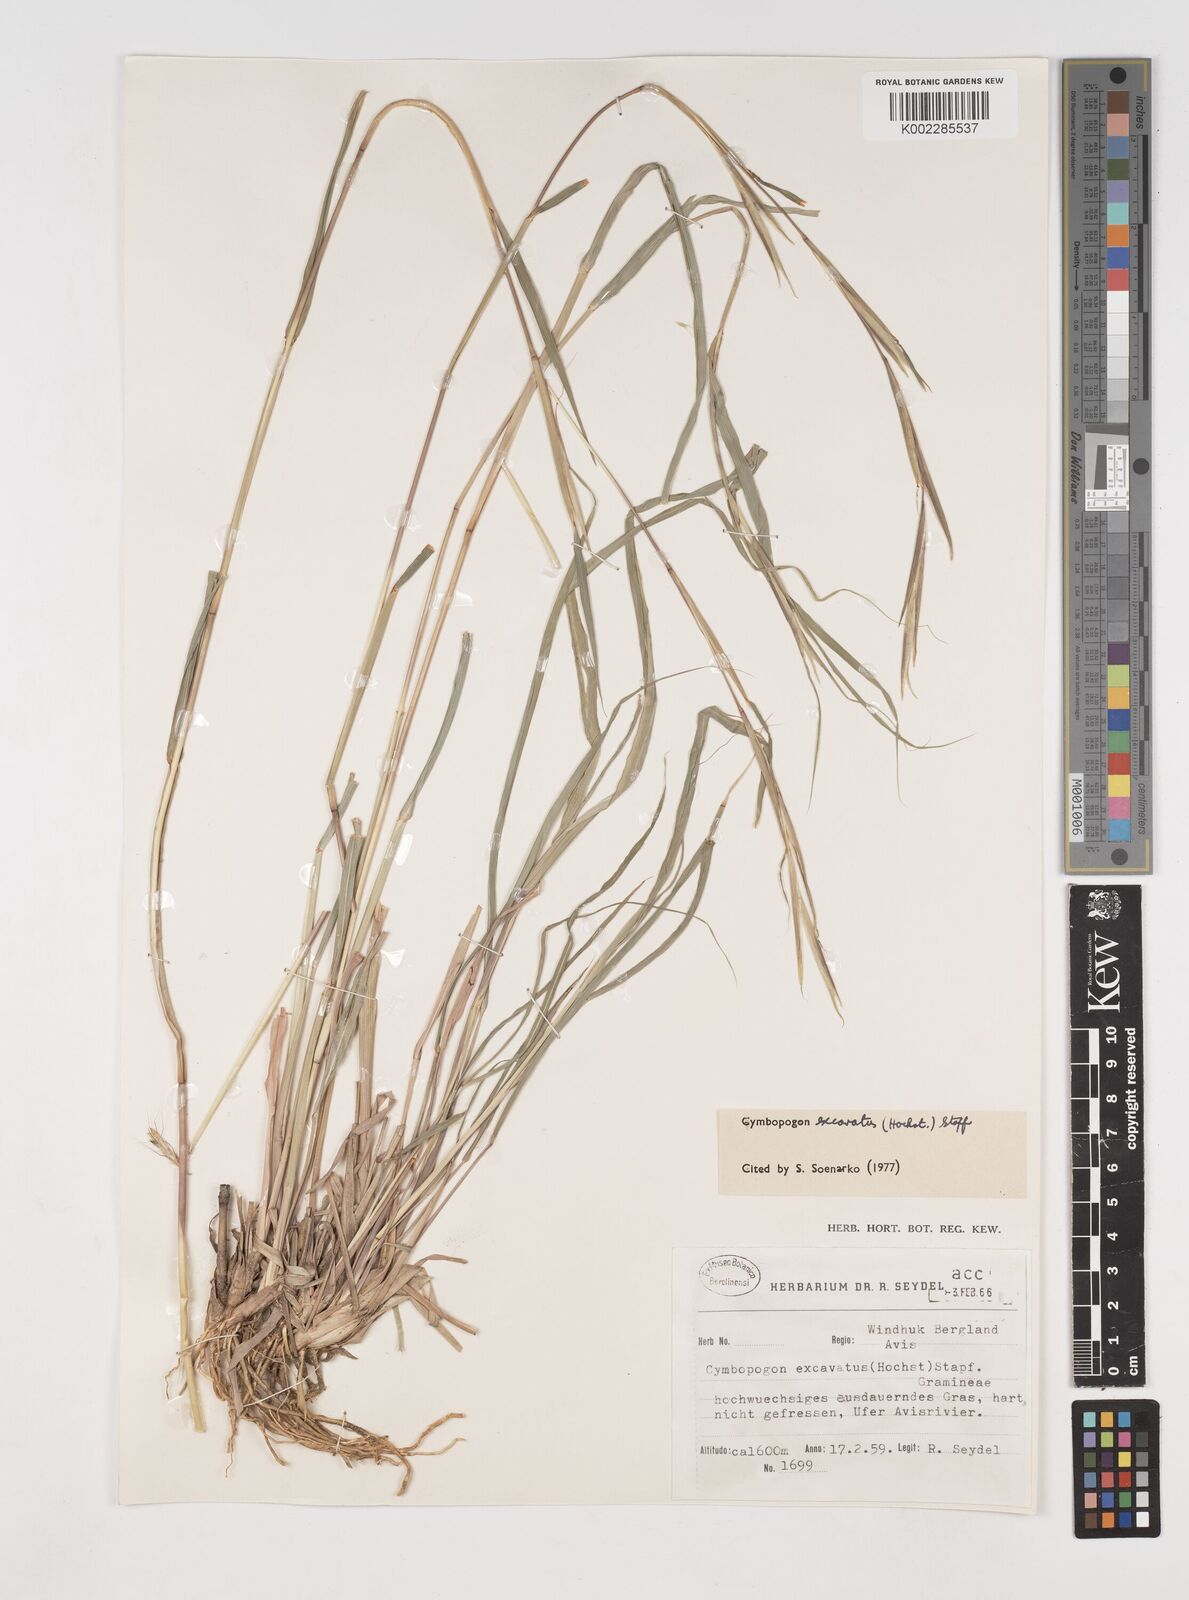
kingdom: Plantae
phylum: Tracheophyta
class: Liliopsida
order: Poales
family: Poaceae
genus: Cymbopogon
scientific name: Cymbopogon caesius
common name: Kachi grass
